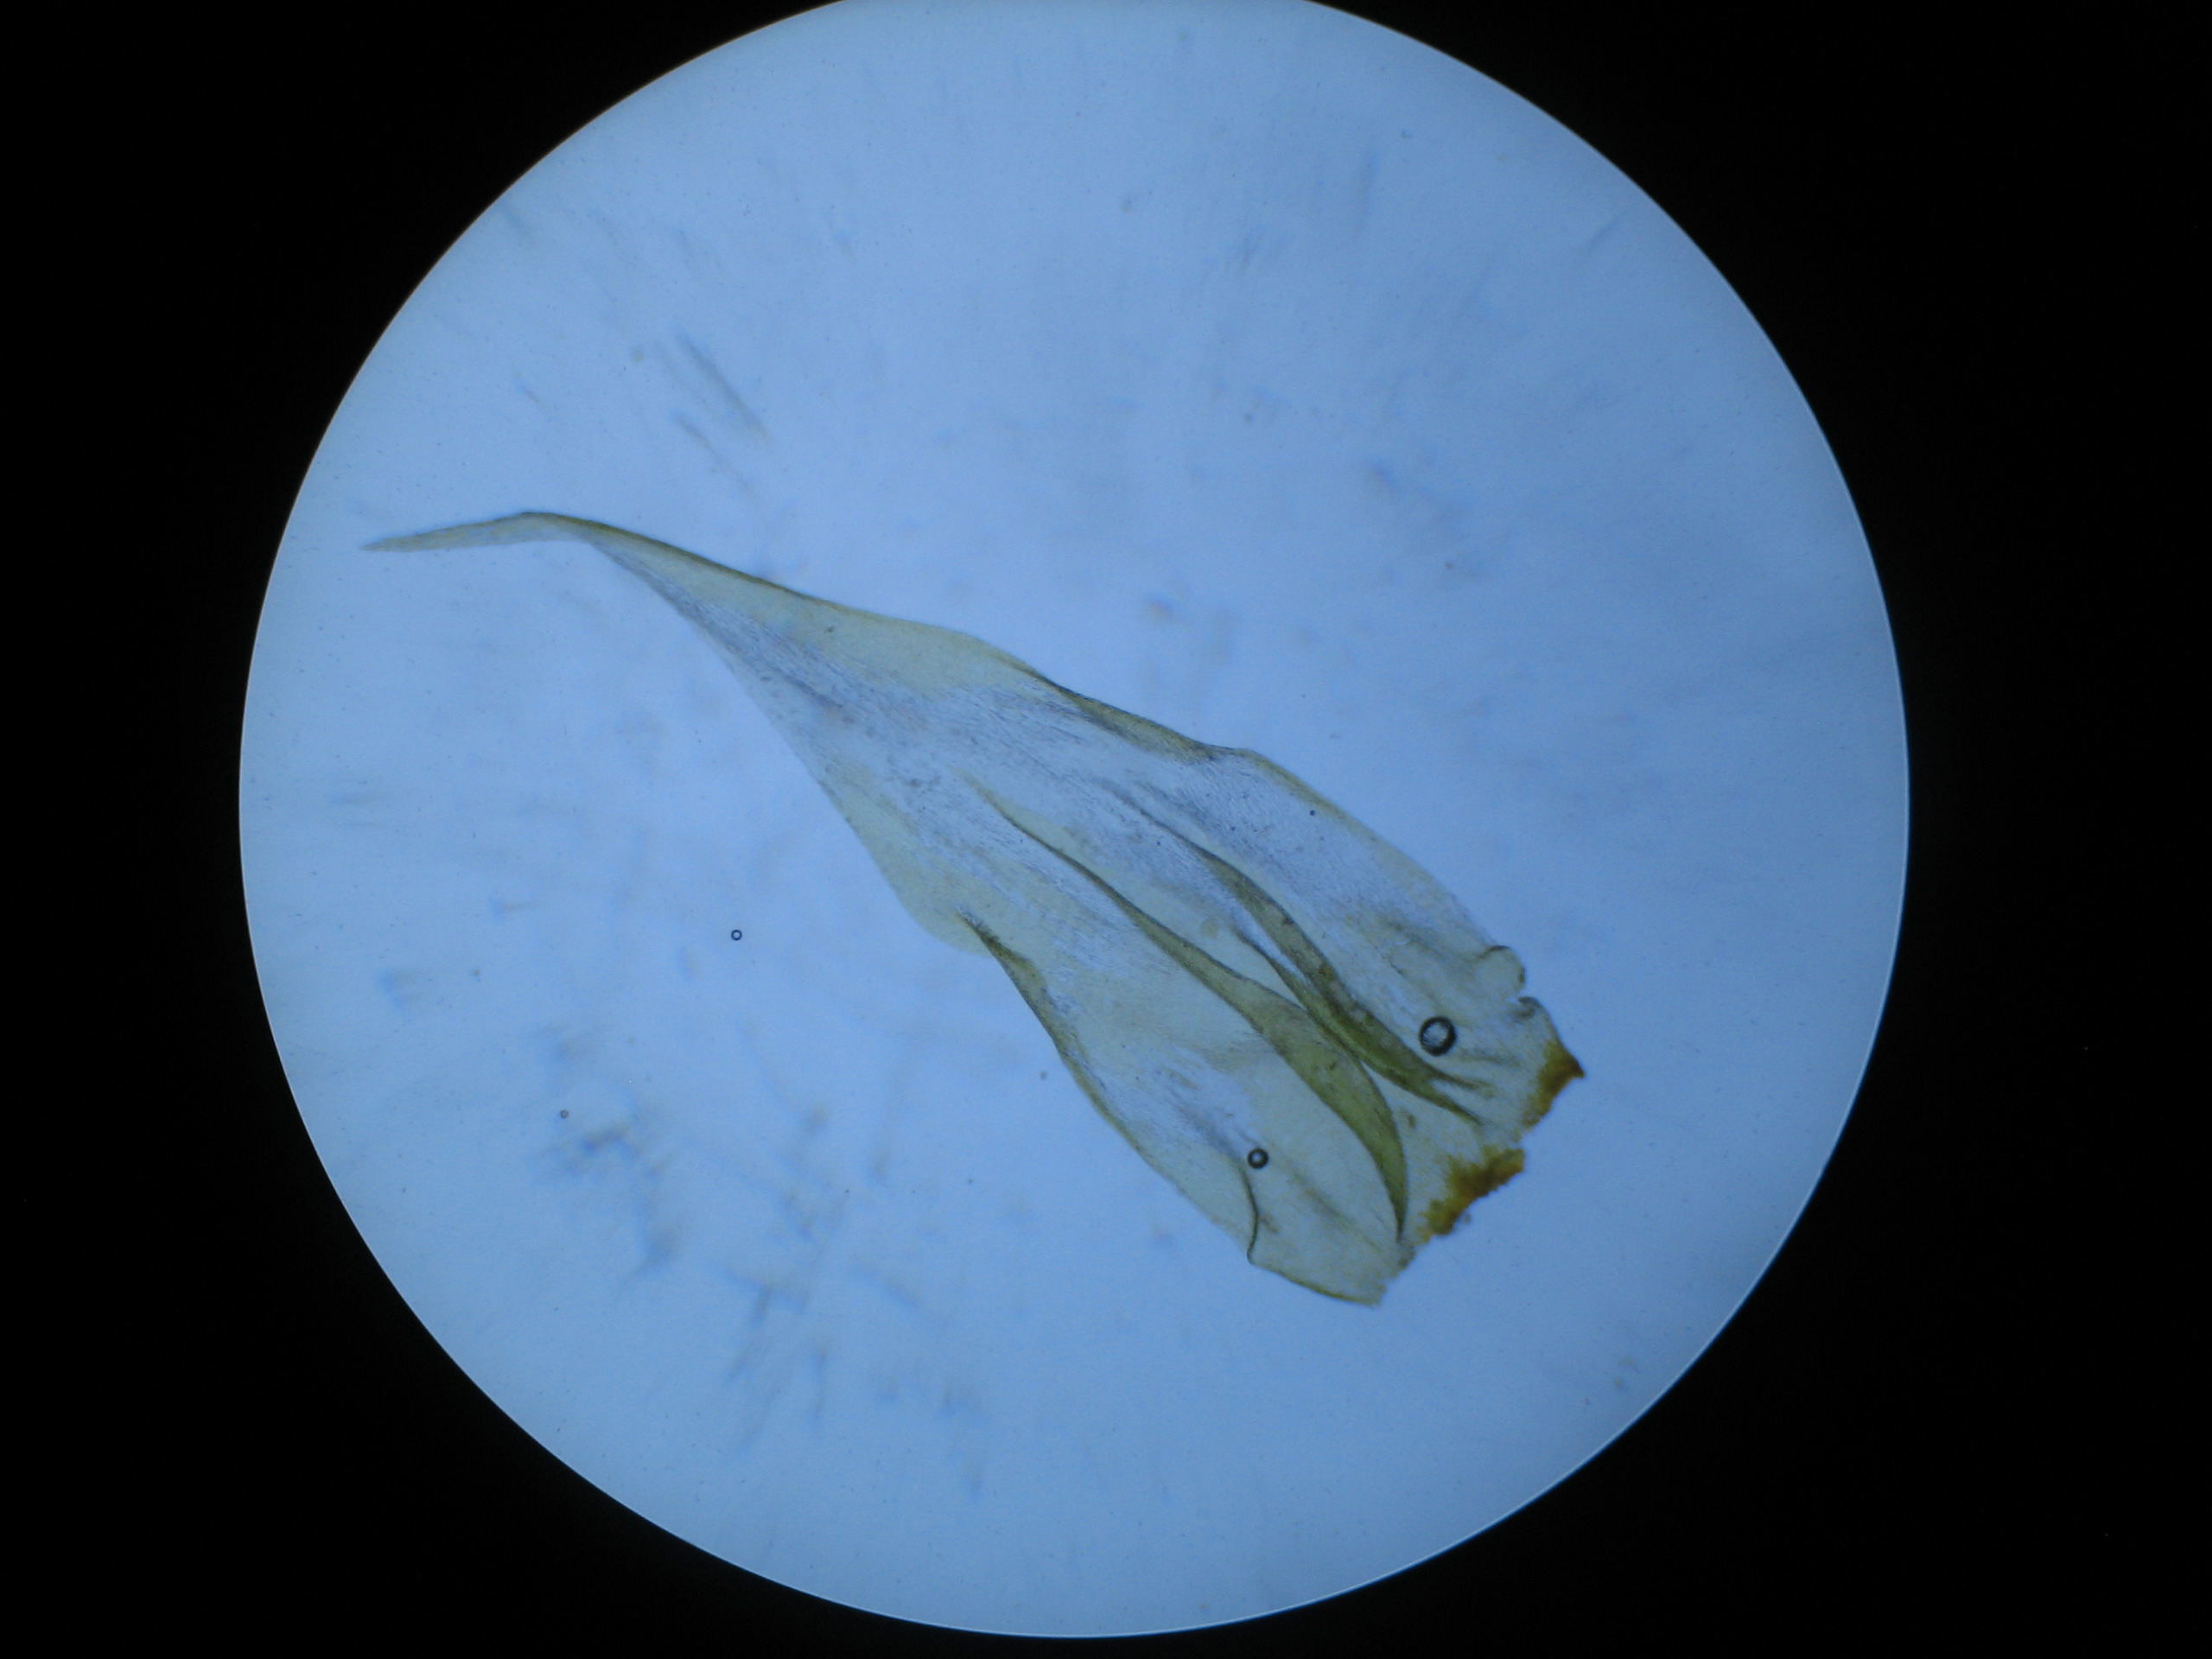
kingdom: Plantae
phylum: Bryophyta
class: Bryopsida
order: Hypnales
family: Hylocomiaceae
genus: Rhytidiadelphus
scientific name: Rhytidiadelphus loreus
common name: Ulvefod-kransemos
